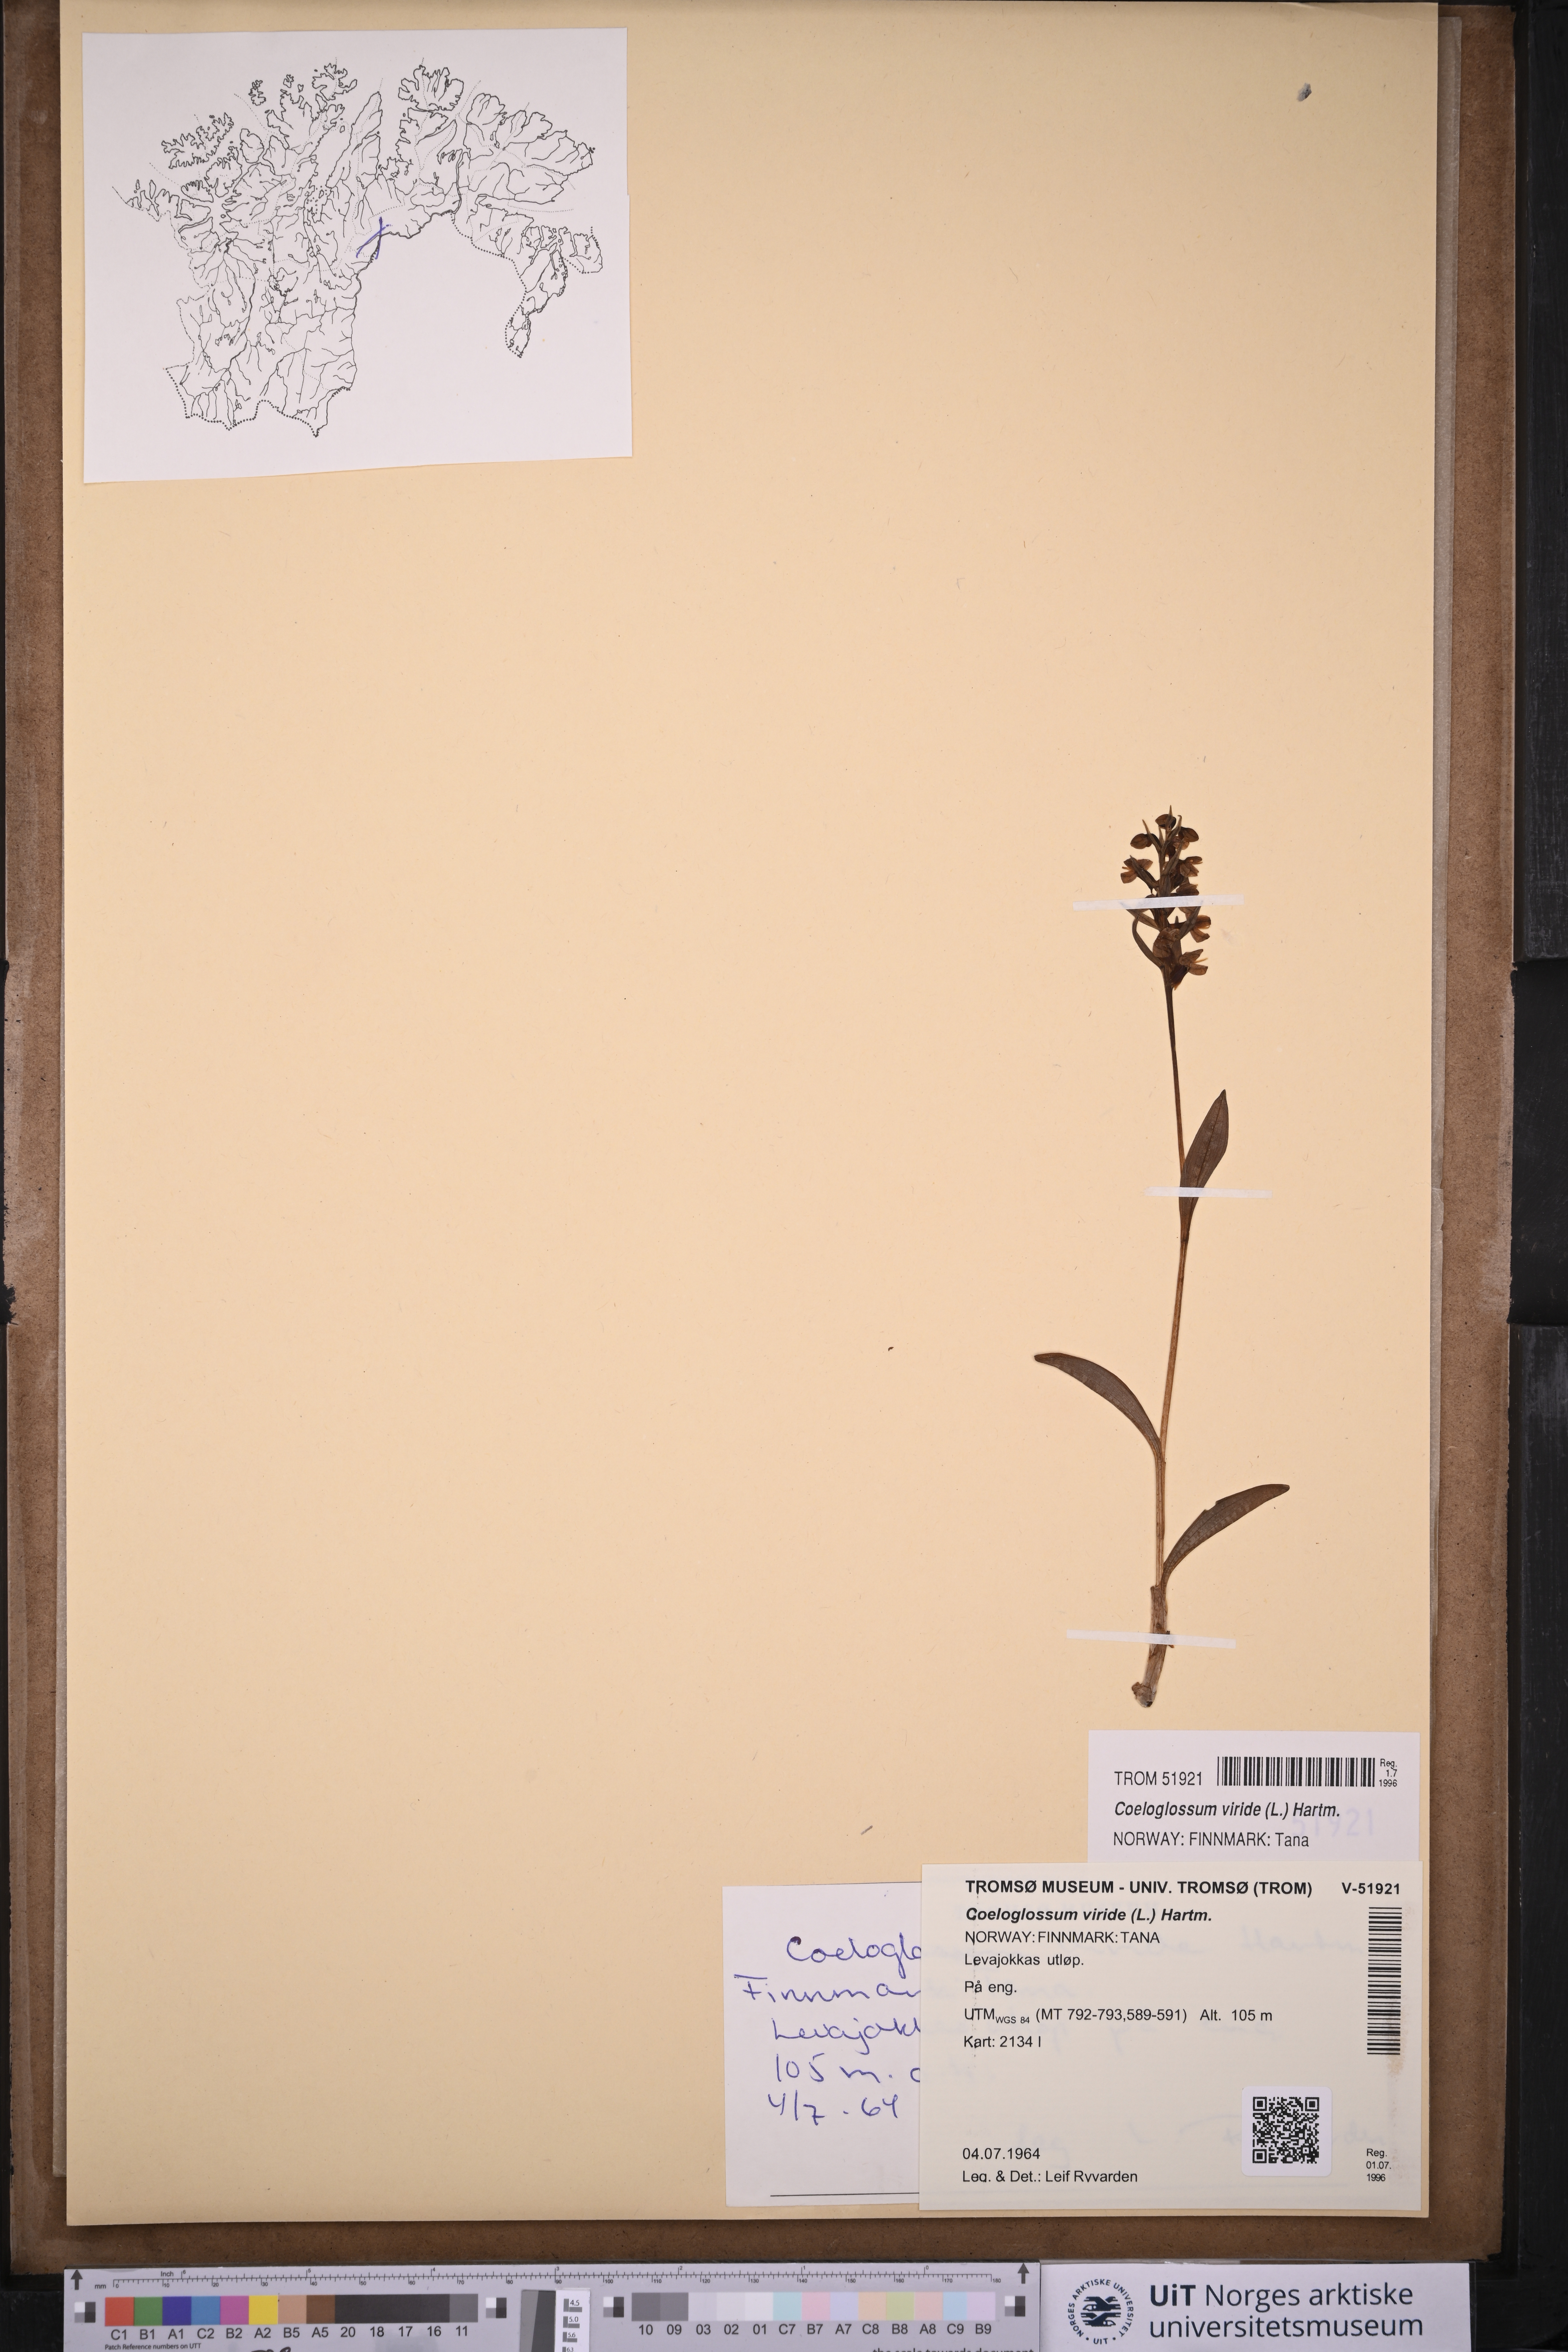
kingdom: Plantae
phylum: Tracheophyta
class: Liliopsida
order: Asparagales
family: Orchidaceae
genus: Dactylorhiza
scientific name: Dactylorhiza viridis
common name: Longbract frog orchid
